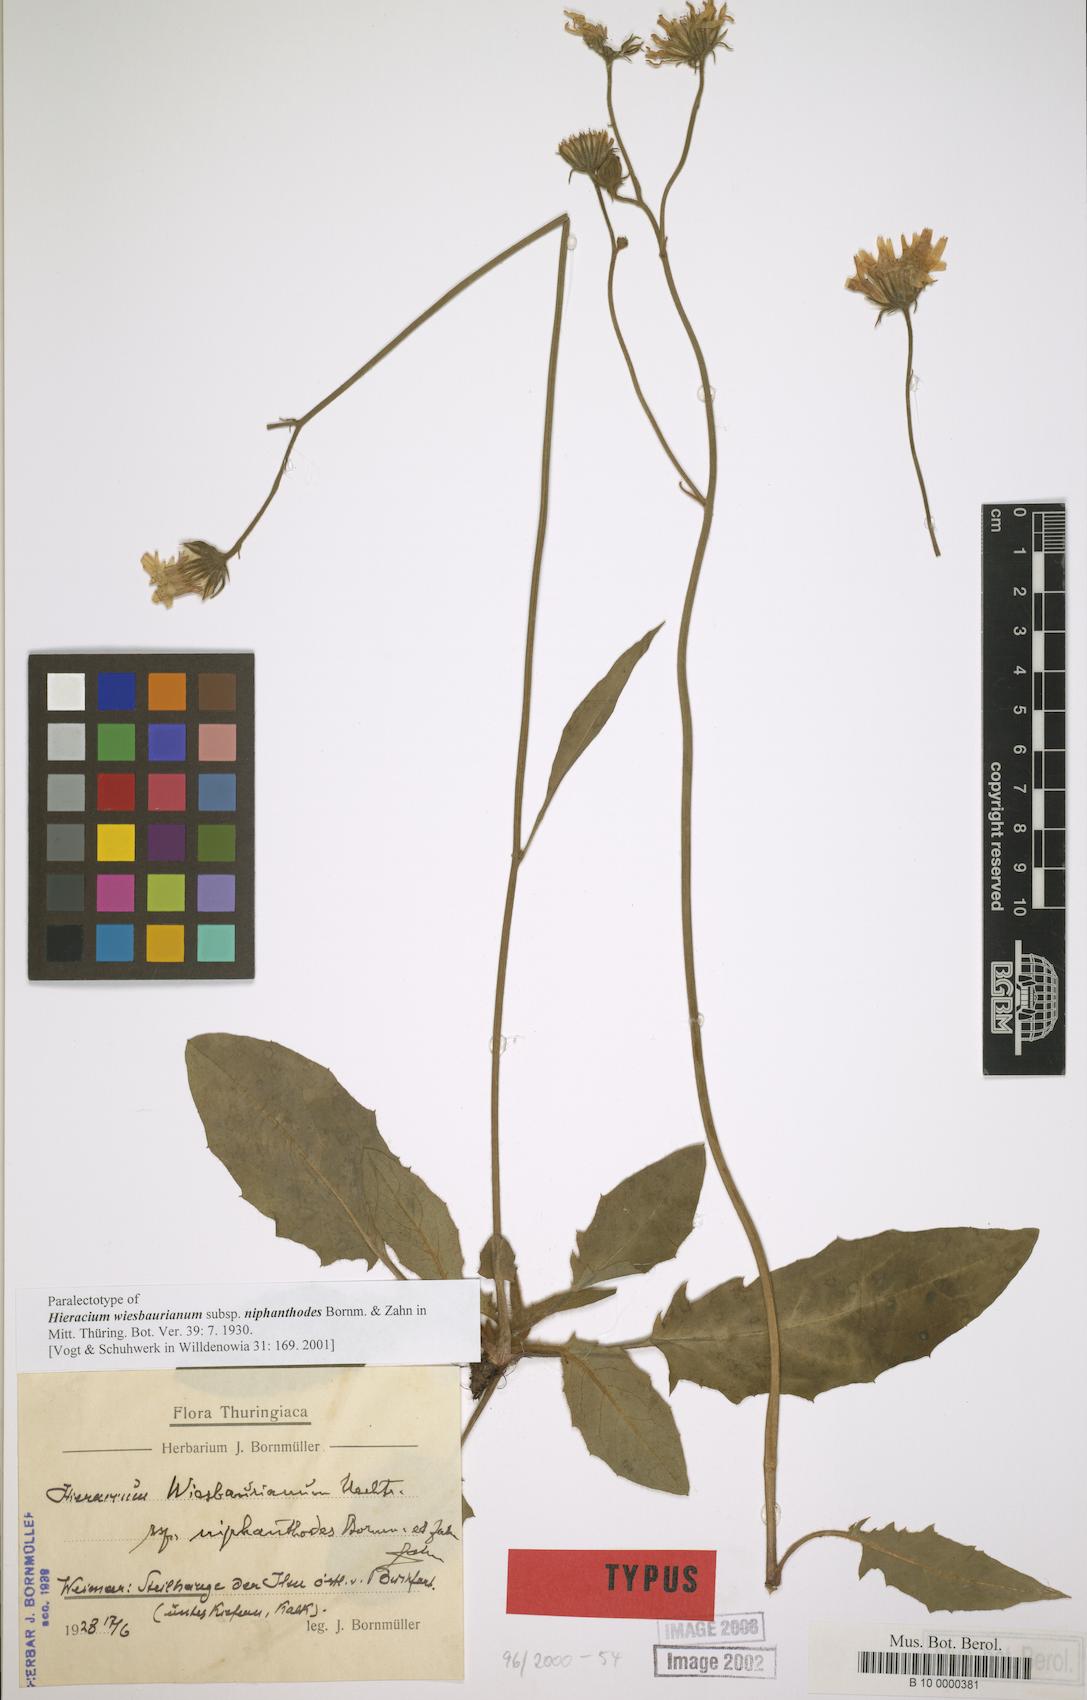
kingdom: Plantae
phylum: Tracheophyta
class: Magnoliopsida
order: Asterales
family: Asteraceae
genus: Hieracium
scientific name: Hieracium hypochoeroides
